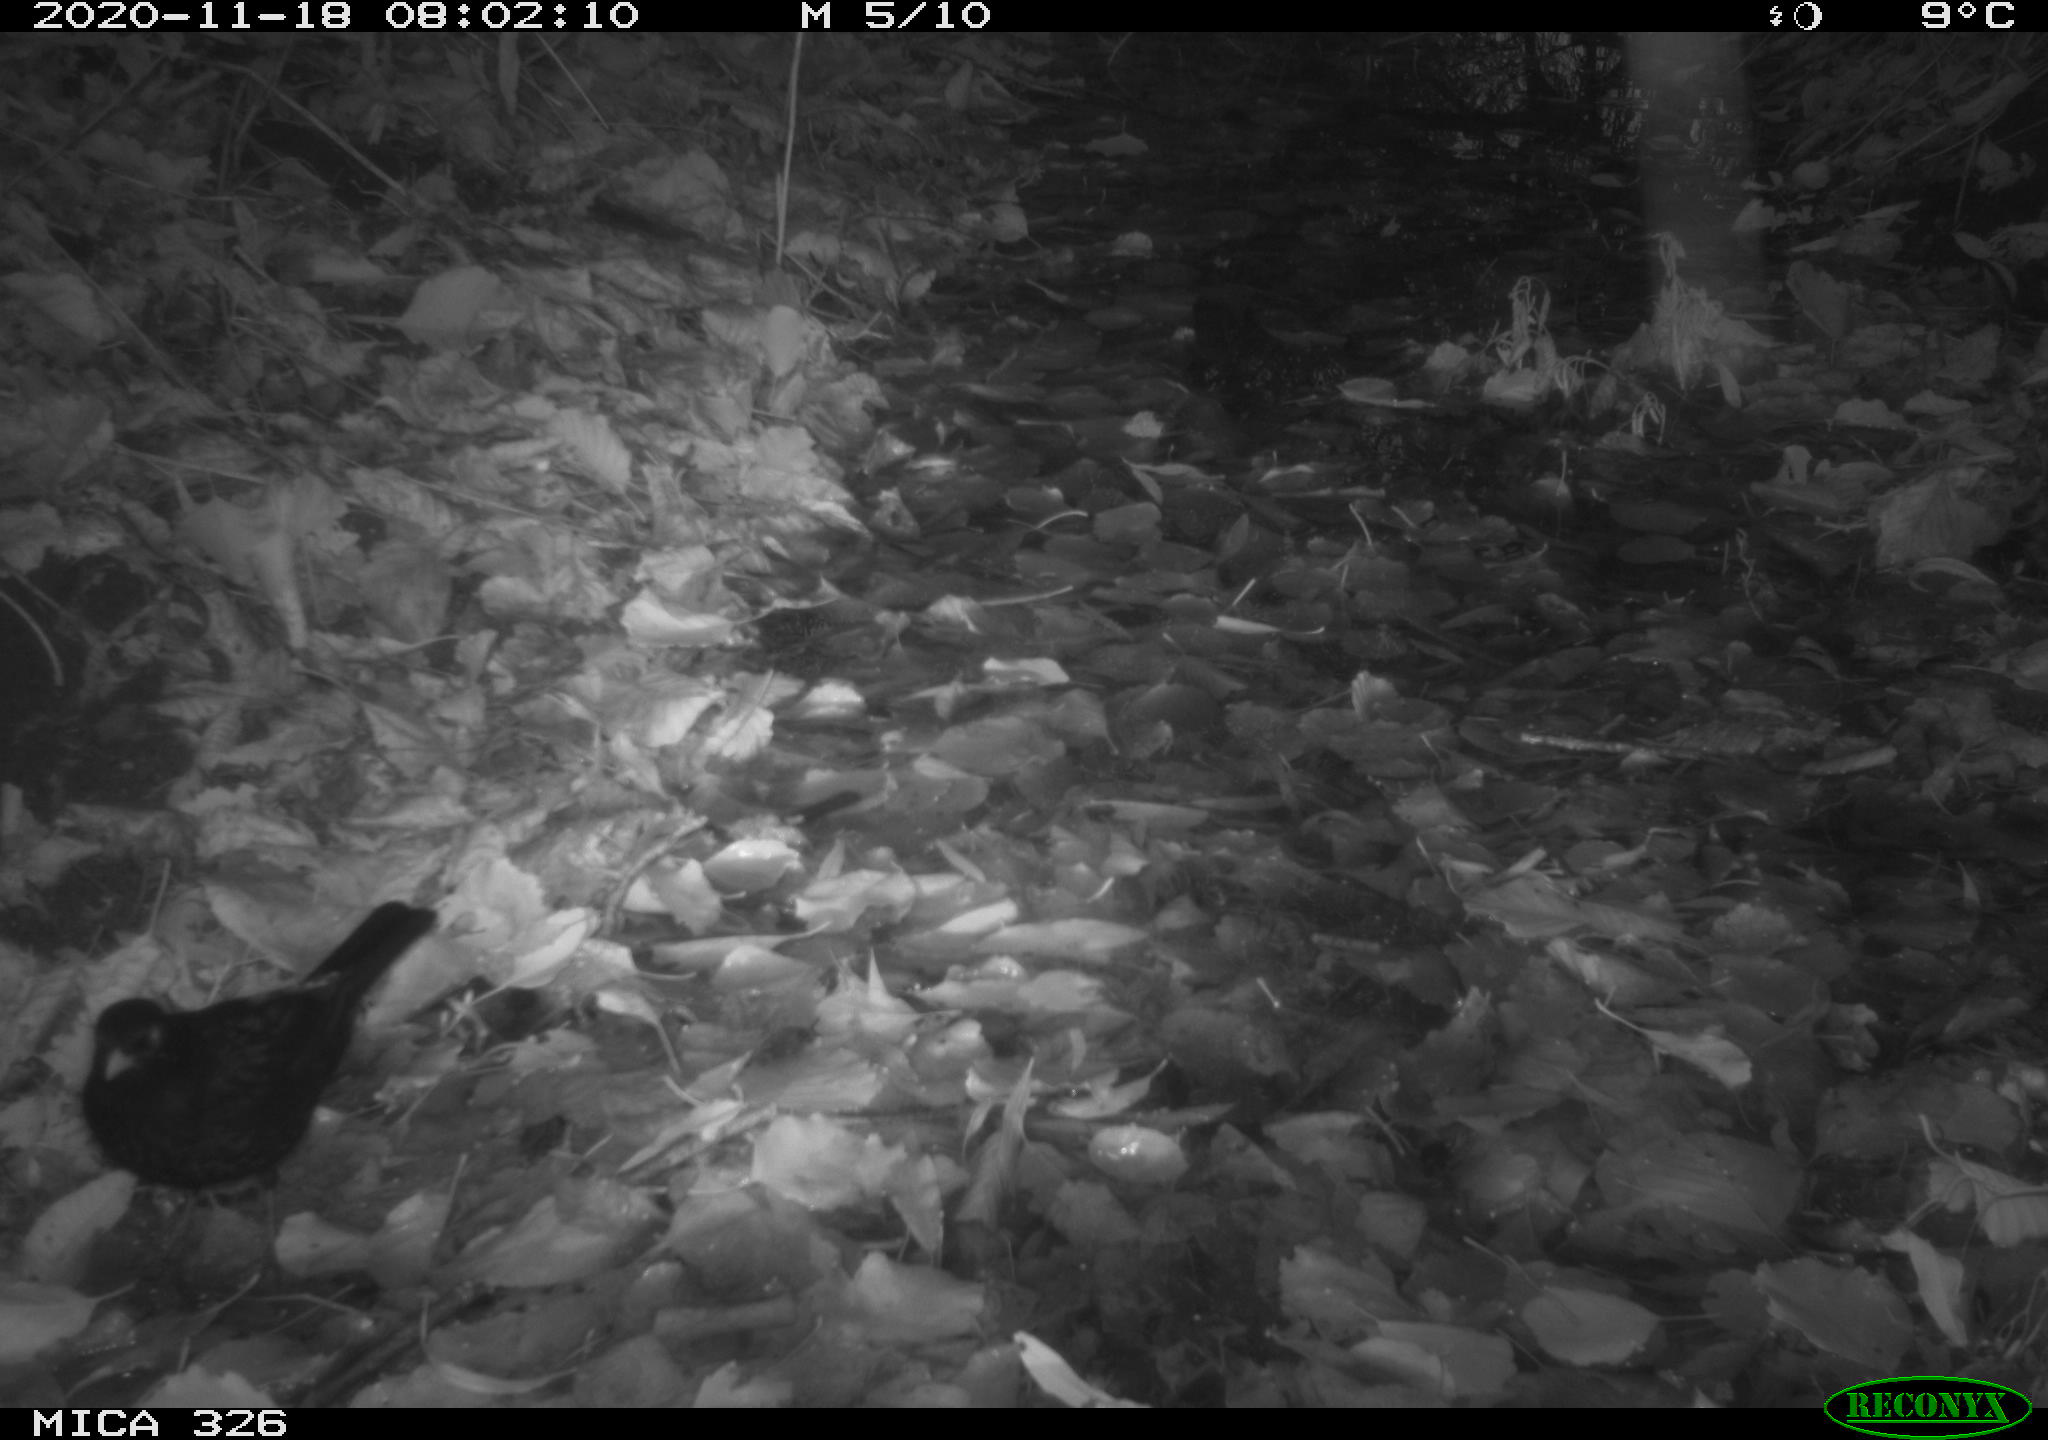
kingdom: Animalia
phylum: Chordata
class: Aves
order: Passeriformes
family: Turdidae
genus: Turdus
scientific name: Turdus merula
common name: Common blackbird
